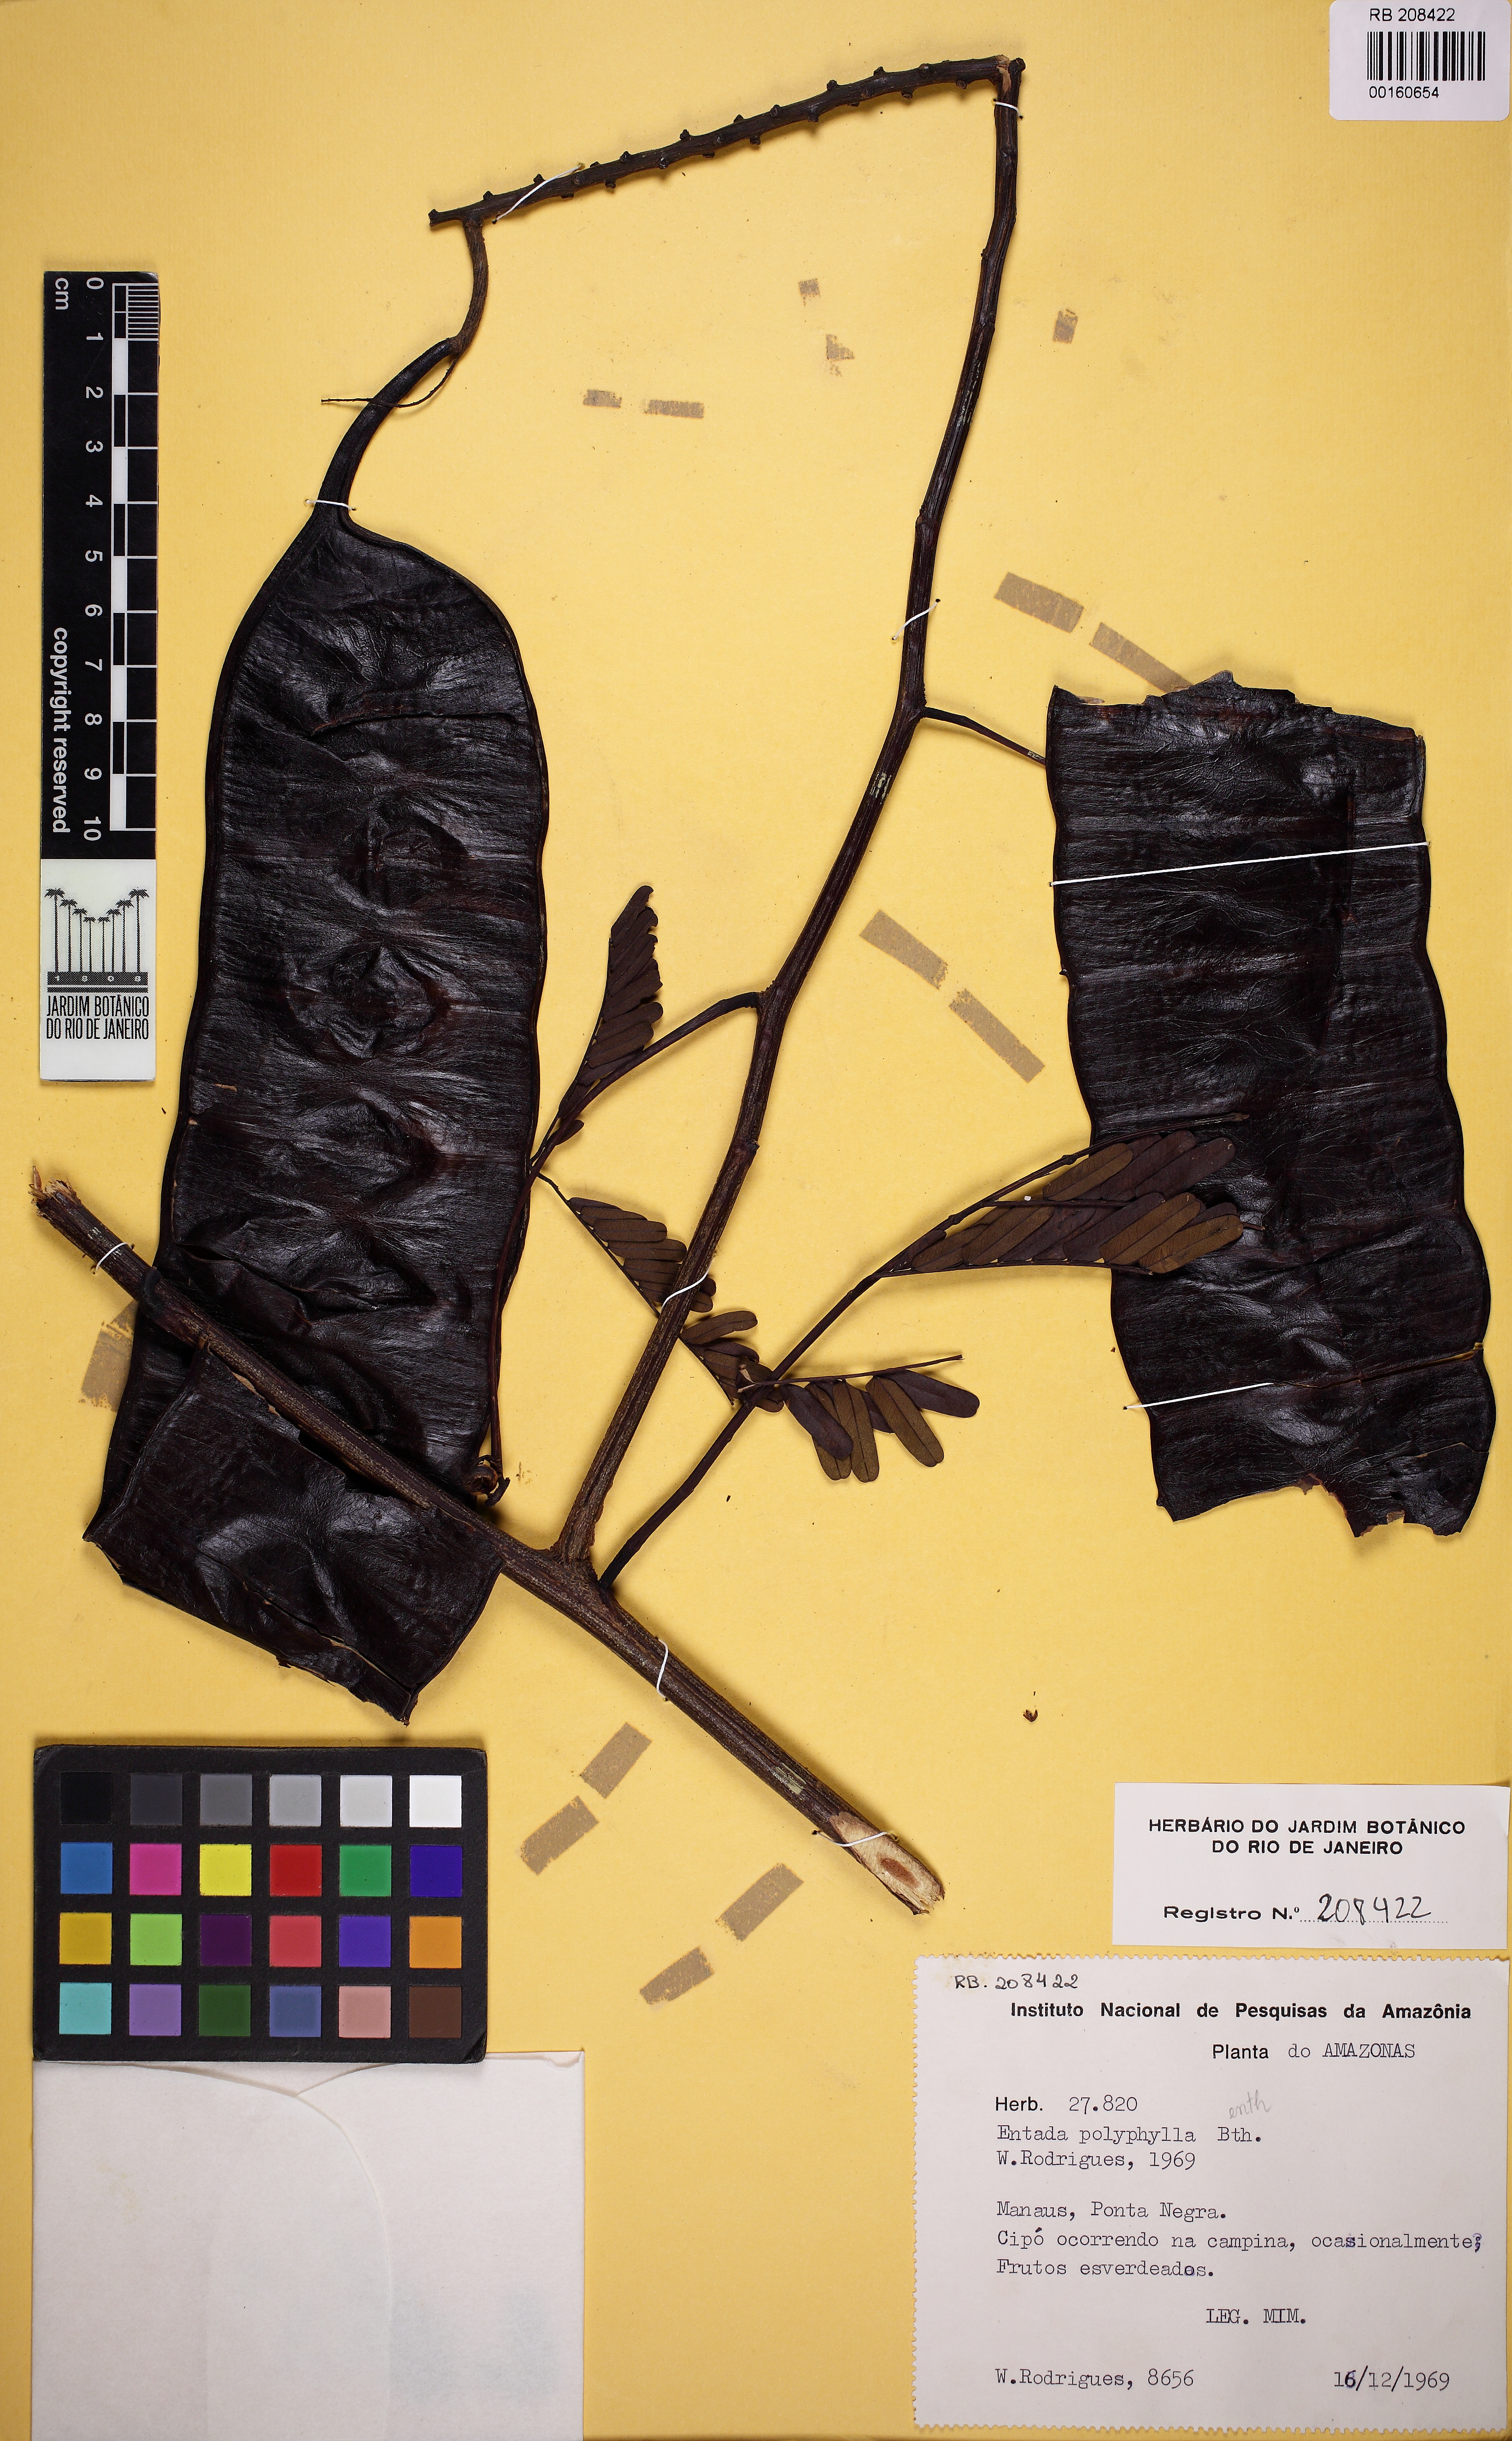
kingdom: Plantae
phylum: Tracheophyta
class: Magnoliopsida
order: Fabales
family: Fabaceae
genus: Entada
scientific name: Entada polyphylla
